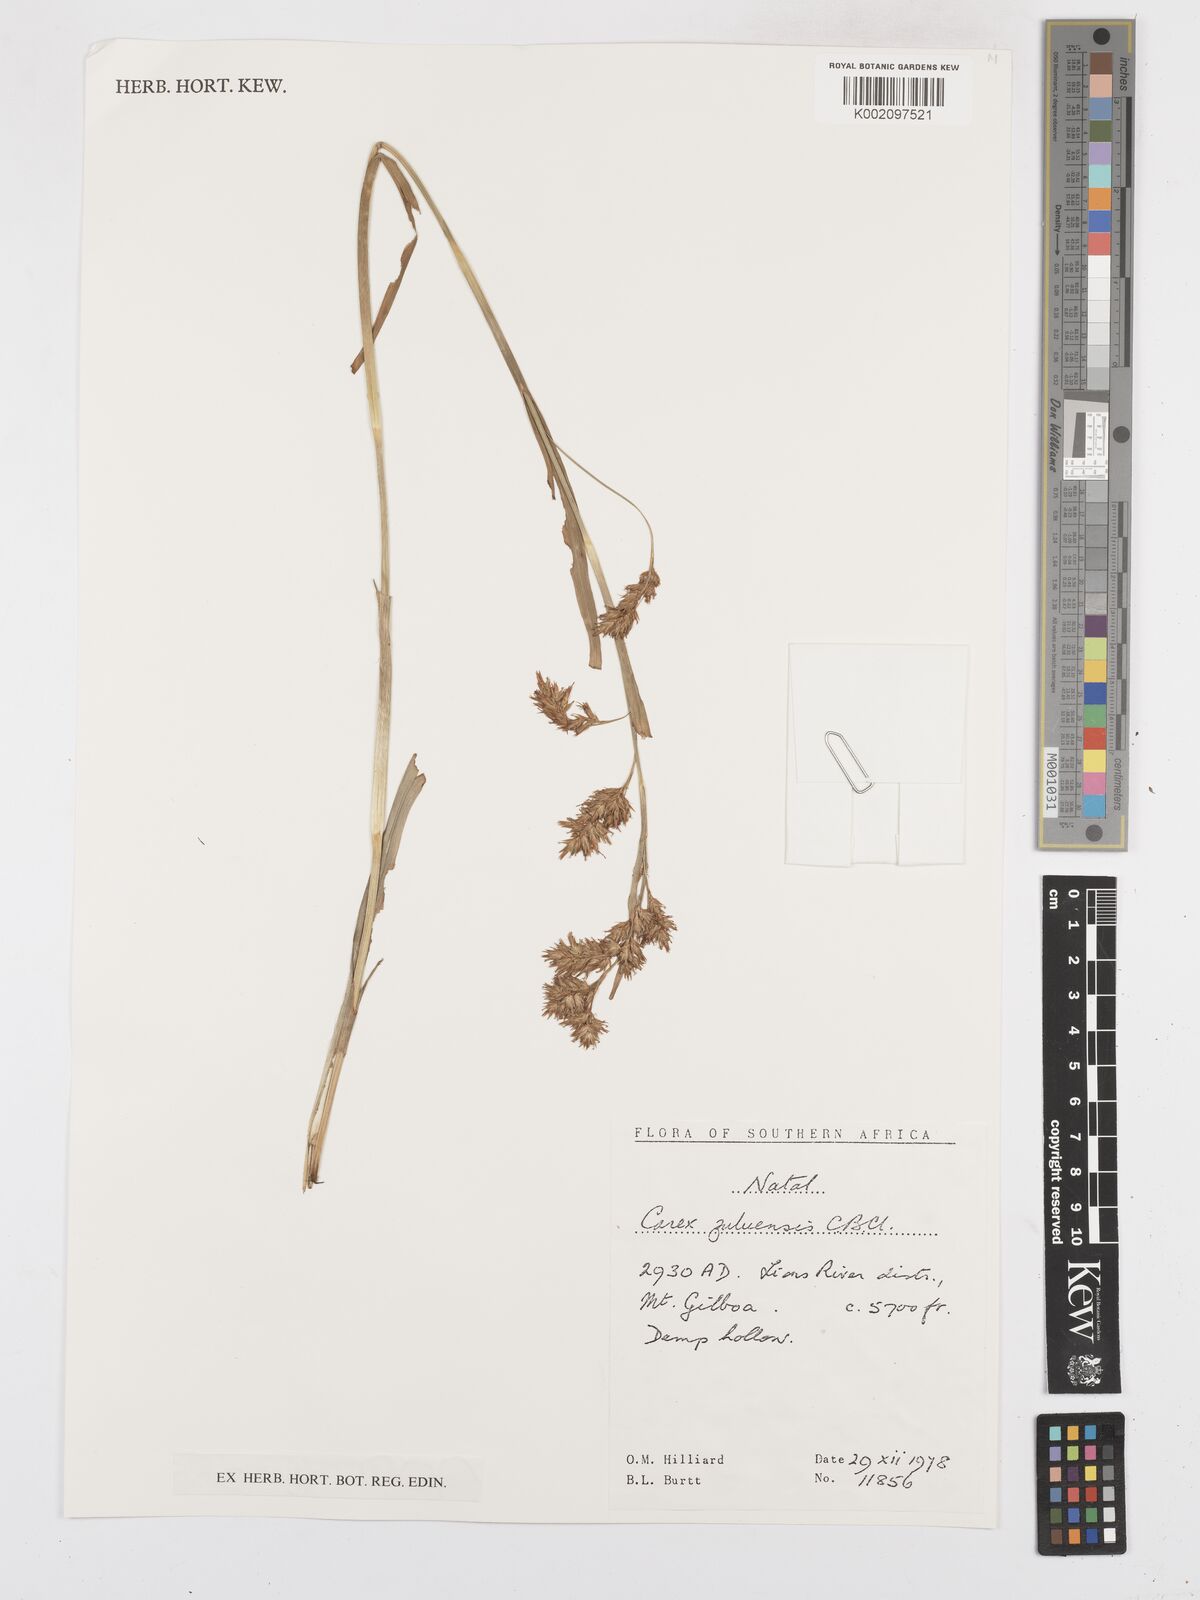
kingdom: Plantae
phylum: Tracheophyta
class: Liliopsida
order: Poales
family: Cyperaceae
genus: Carex
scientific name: Carex steudneri
